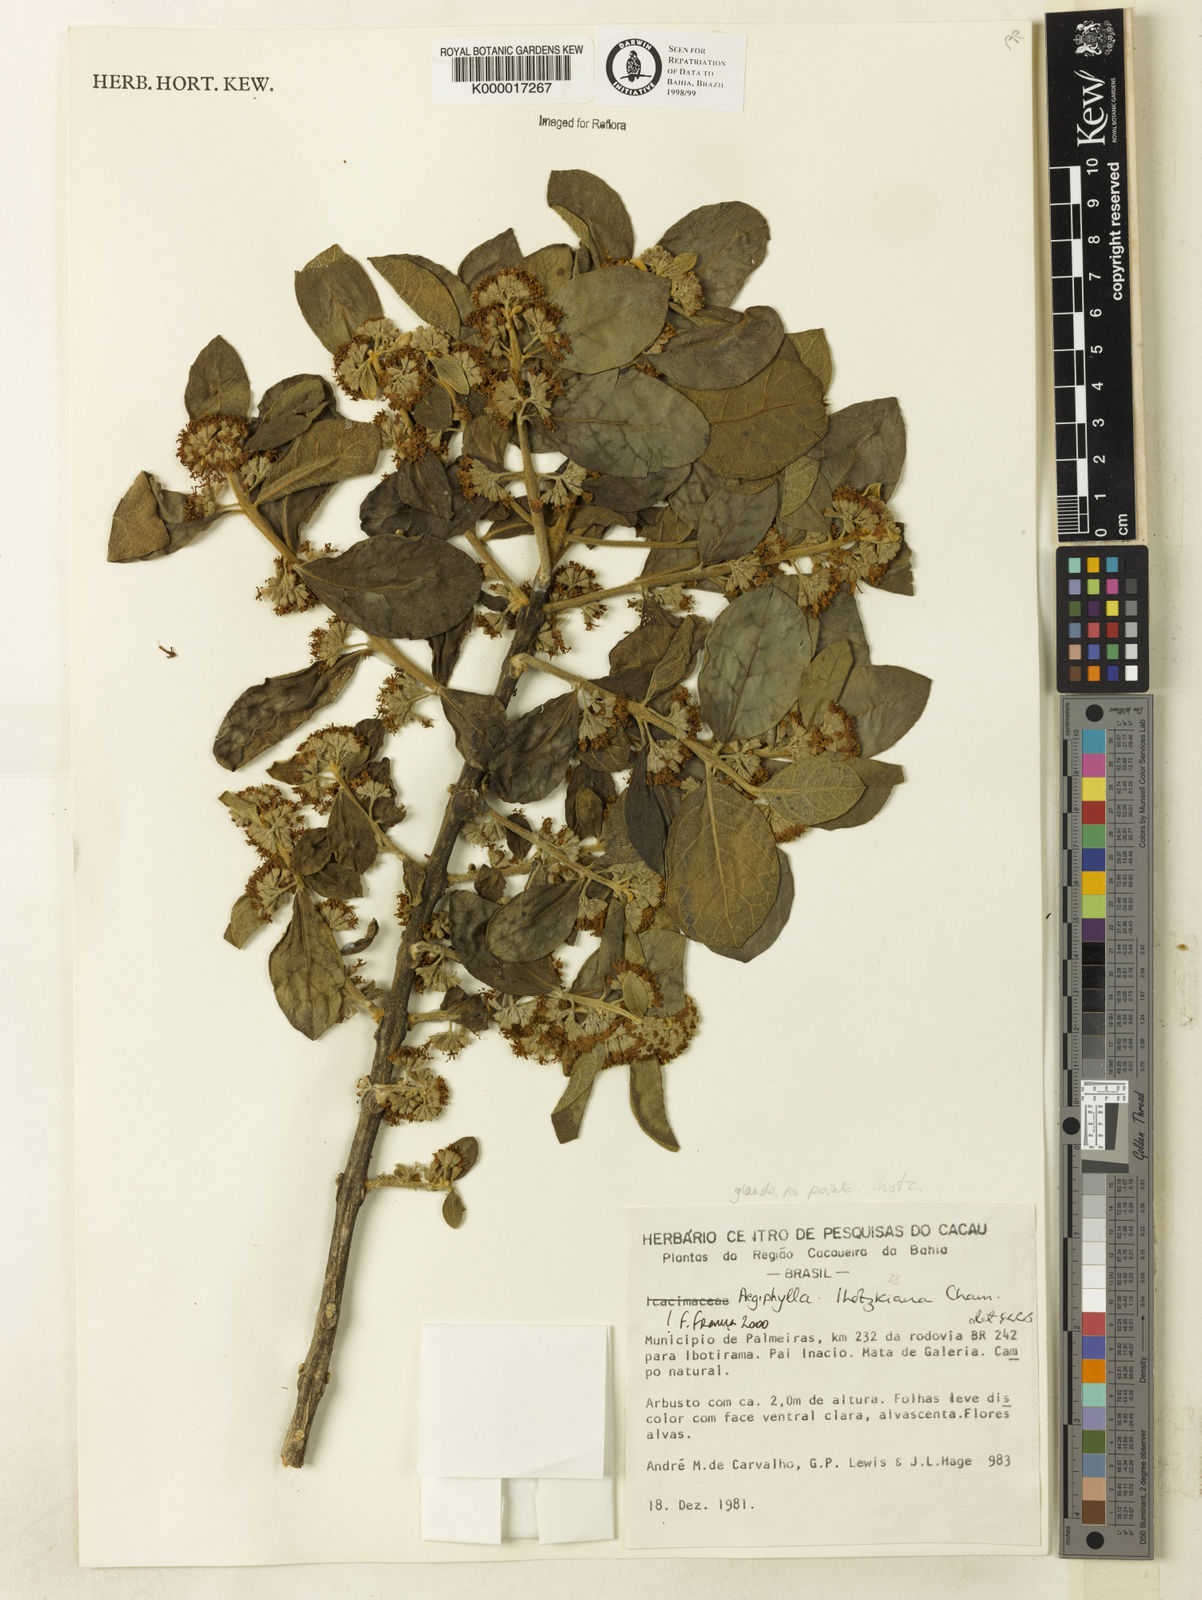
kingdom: Plantae
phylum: Tracheophyta
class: Magnoliopsida
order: Lamiales
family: Lamiaceae
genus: Aegiphila
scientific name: Aegiphila verticillata
